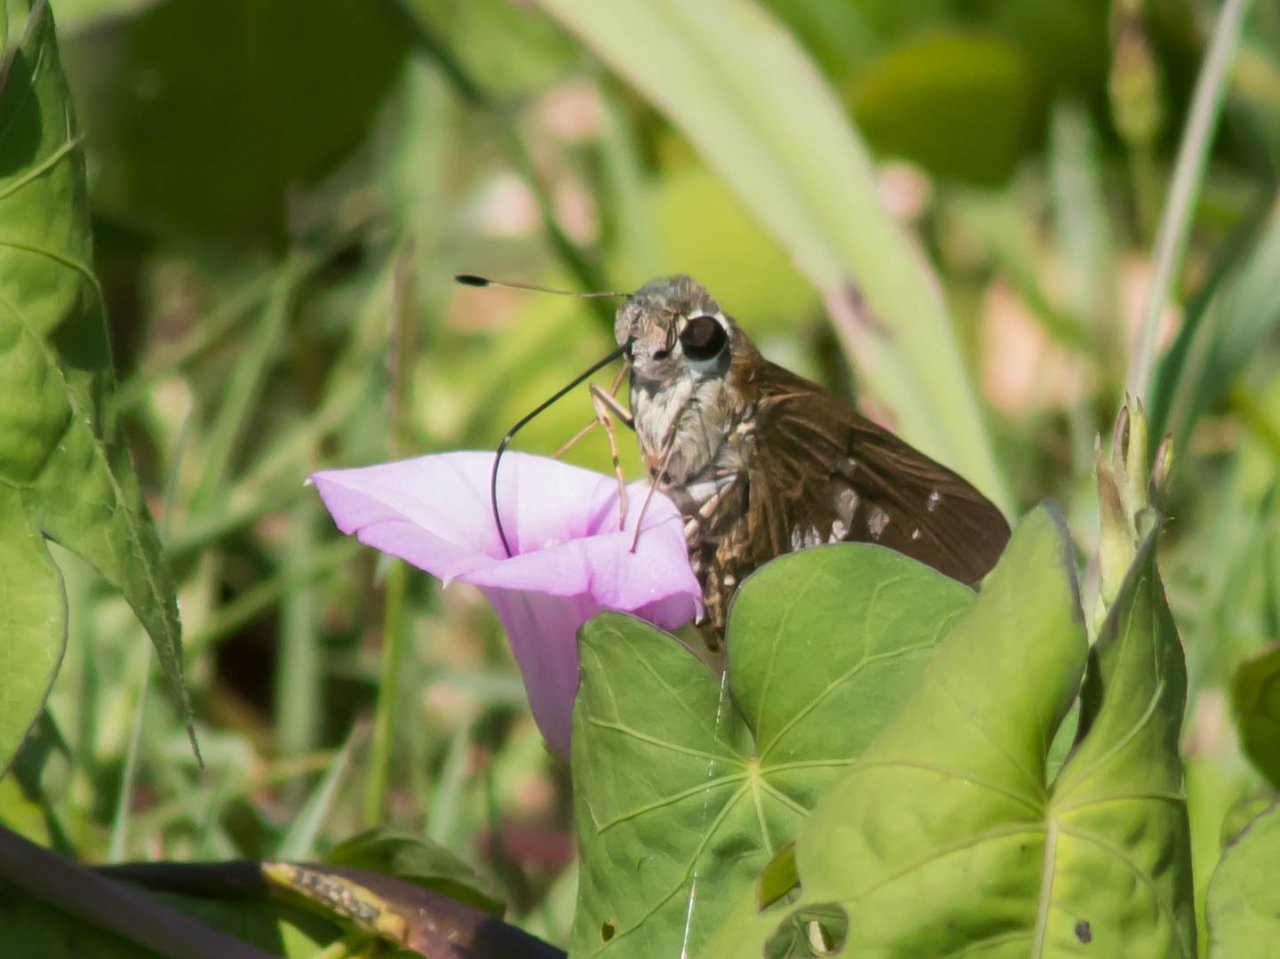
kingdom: Animalia
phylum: Arthropoda
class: Insecta
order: Lepidoptera
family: Hesperiidae
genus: Calpodes
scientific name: Calpodes ethlius
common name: Brazilian Skipper
